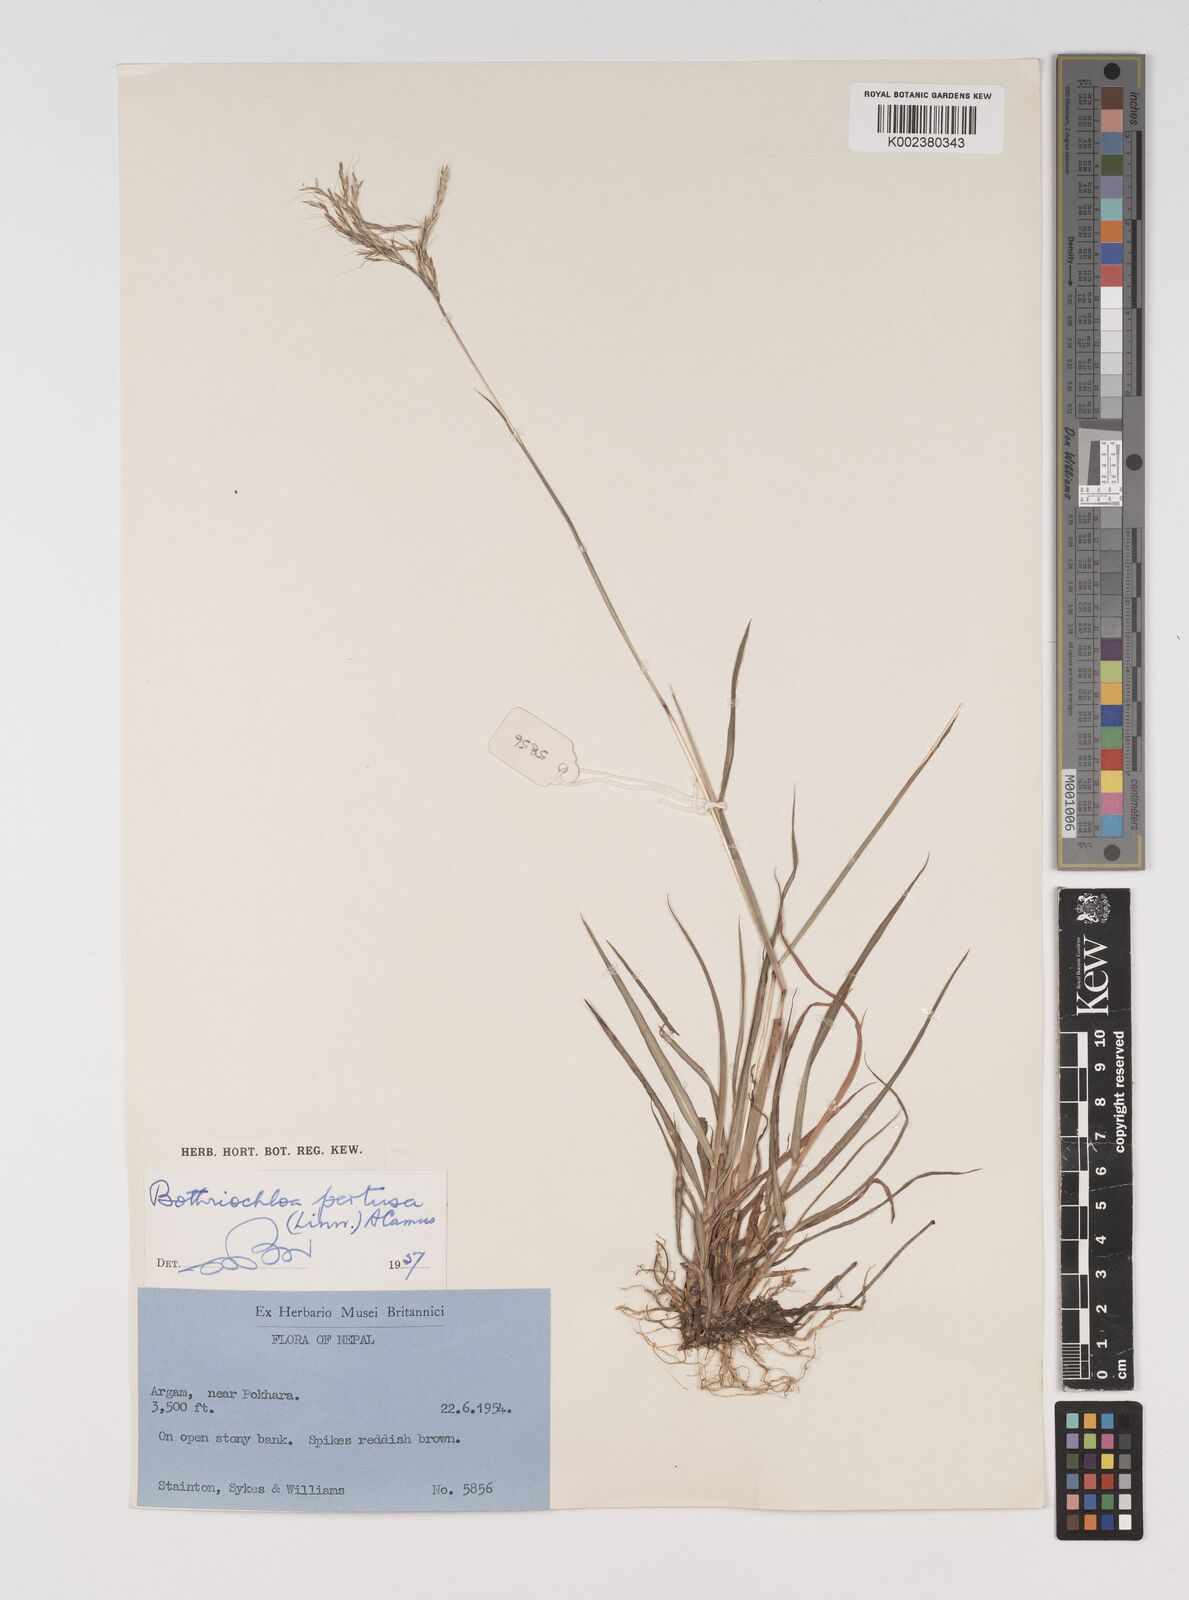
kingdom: Plantae
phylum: Tracheophyta
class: Liliopsida
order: Poales
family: Poaceae
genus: Bothriochloa
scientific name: Bothriochloa pertusa
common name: Pitted beardgrass
